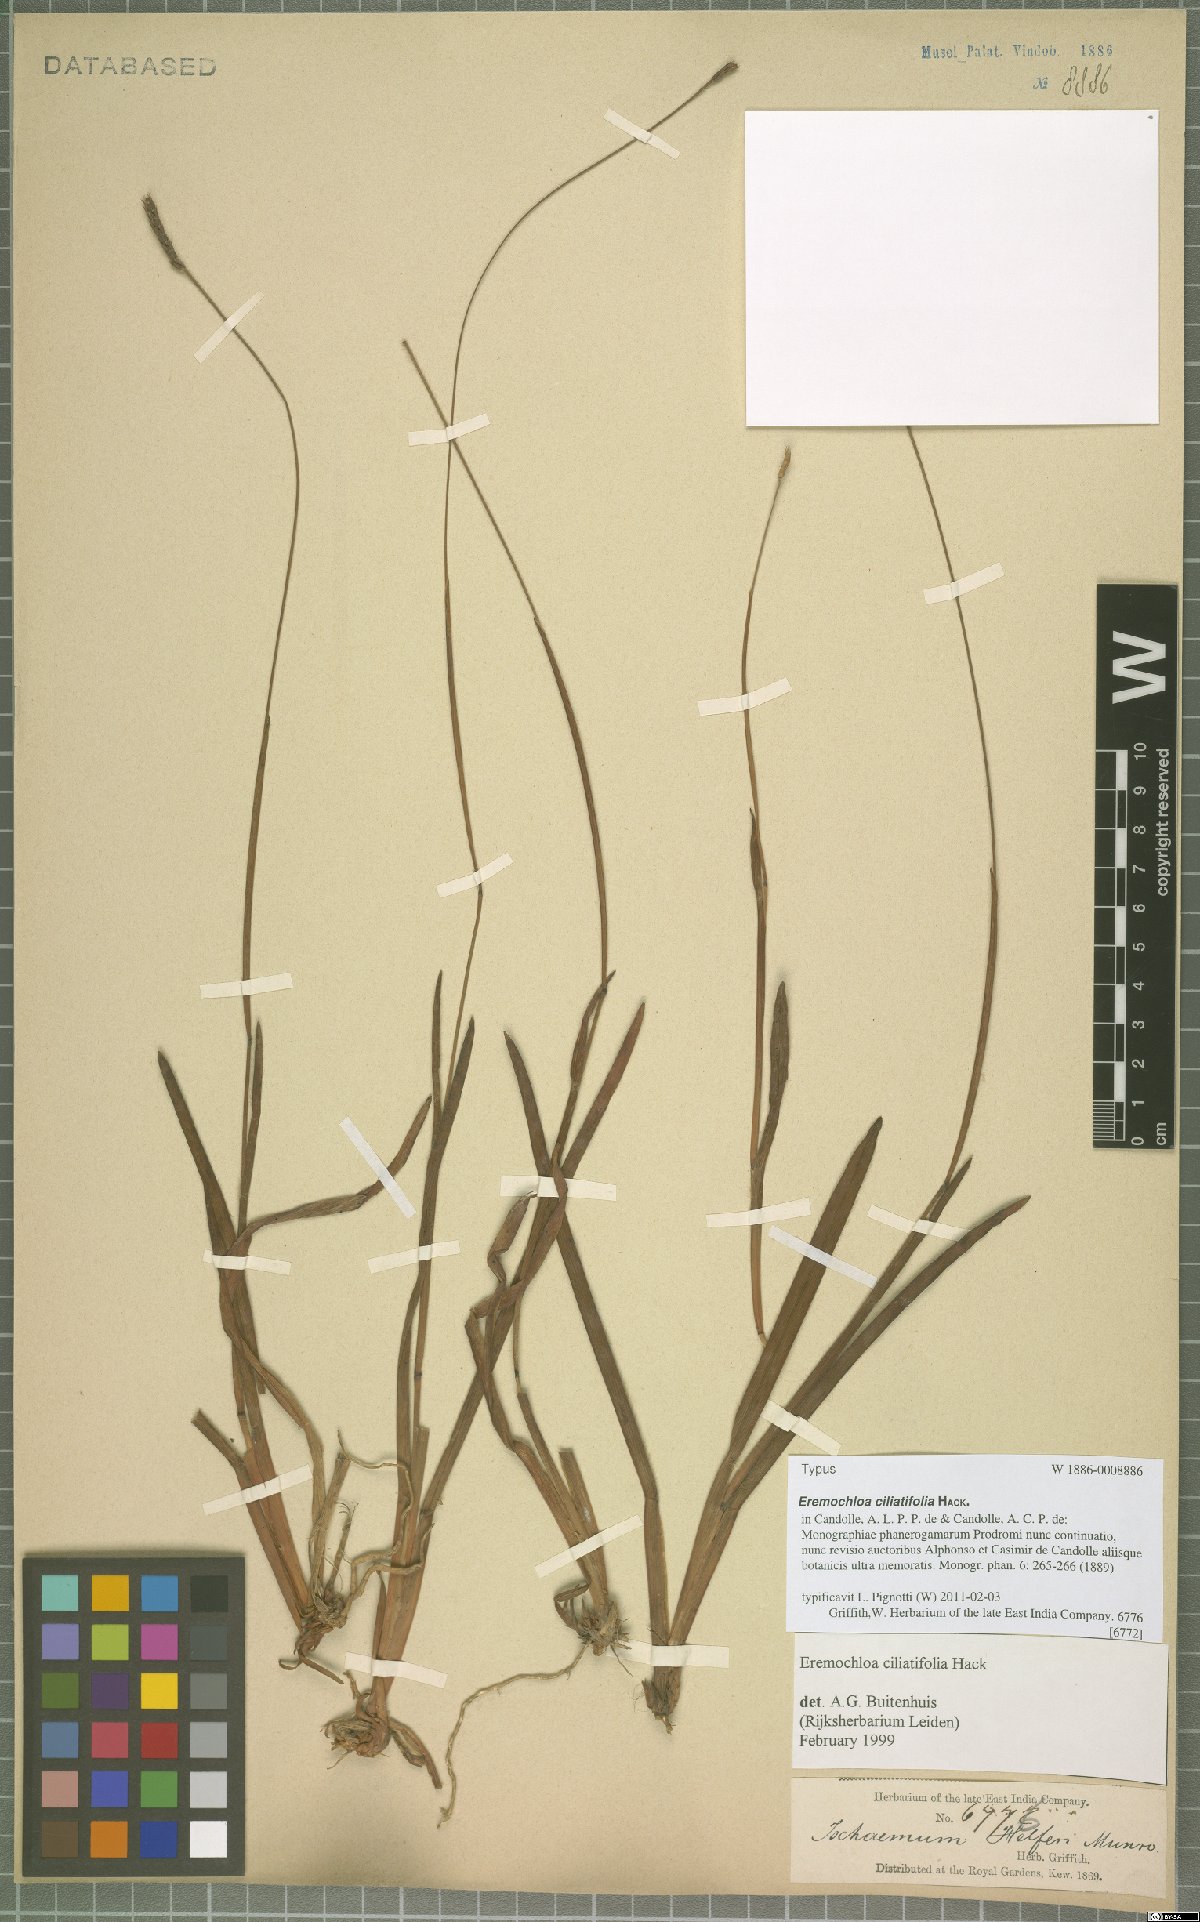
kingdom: Plantae
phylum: Tracheophyta
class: Liliopsida
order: Poales
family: Poaceae
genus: Eremochloa
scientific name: Eremochloa ciliatifolia
